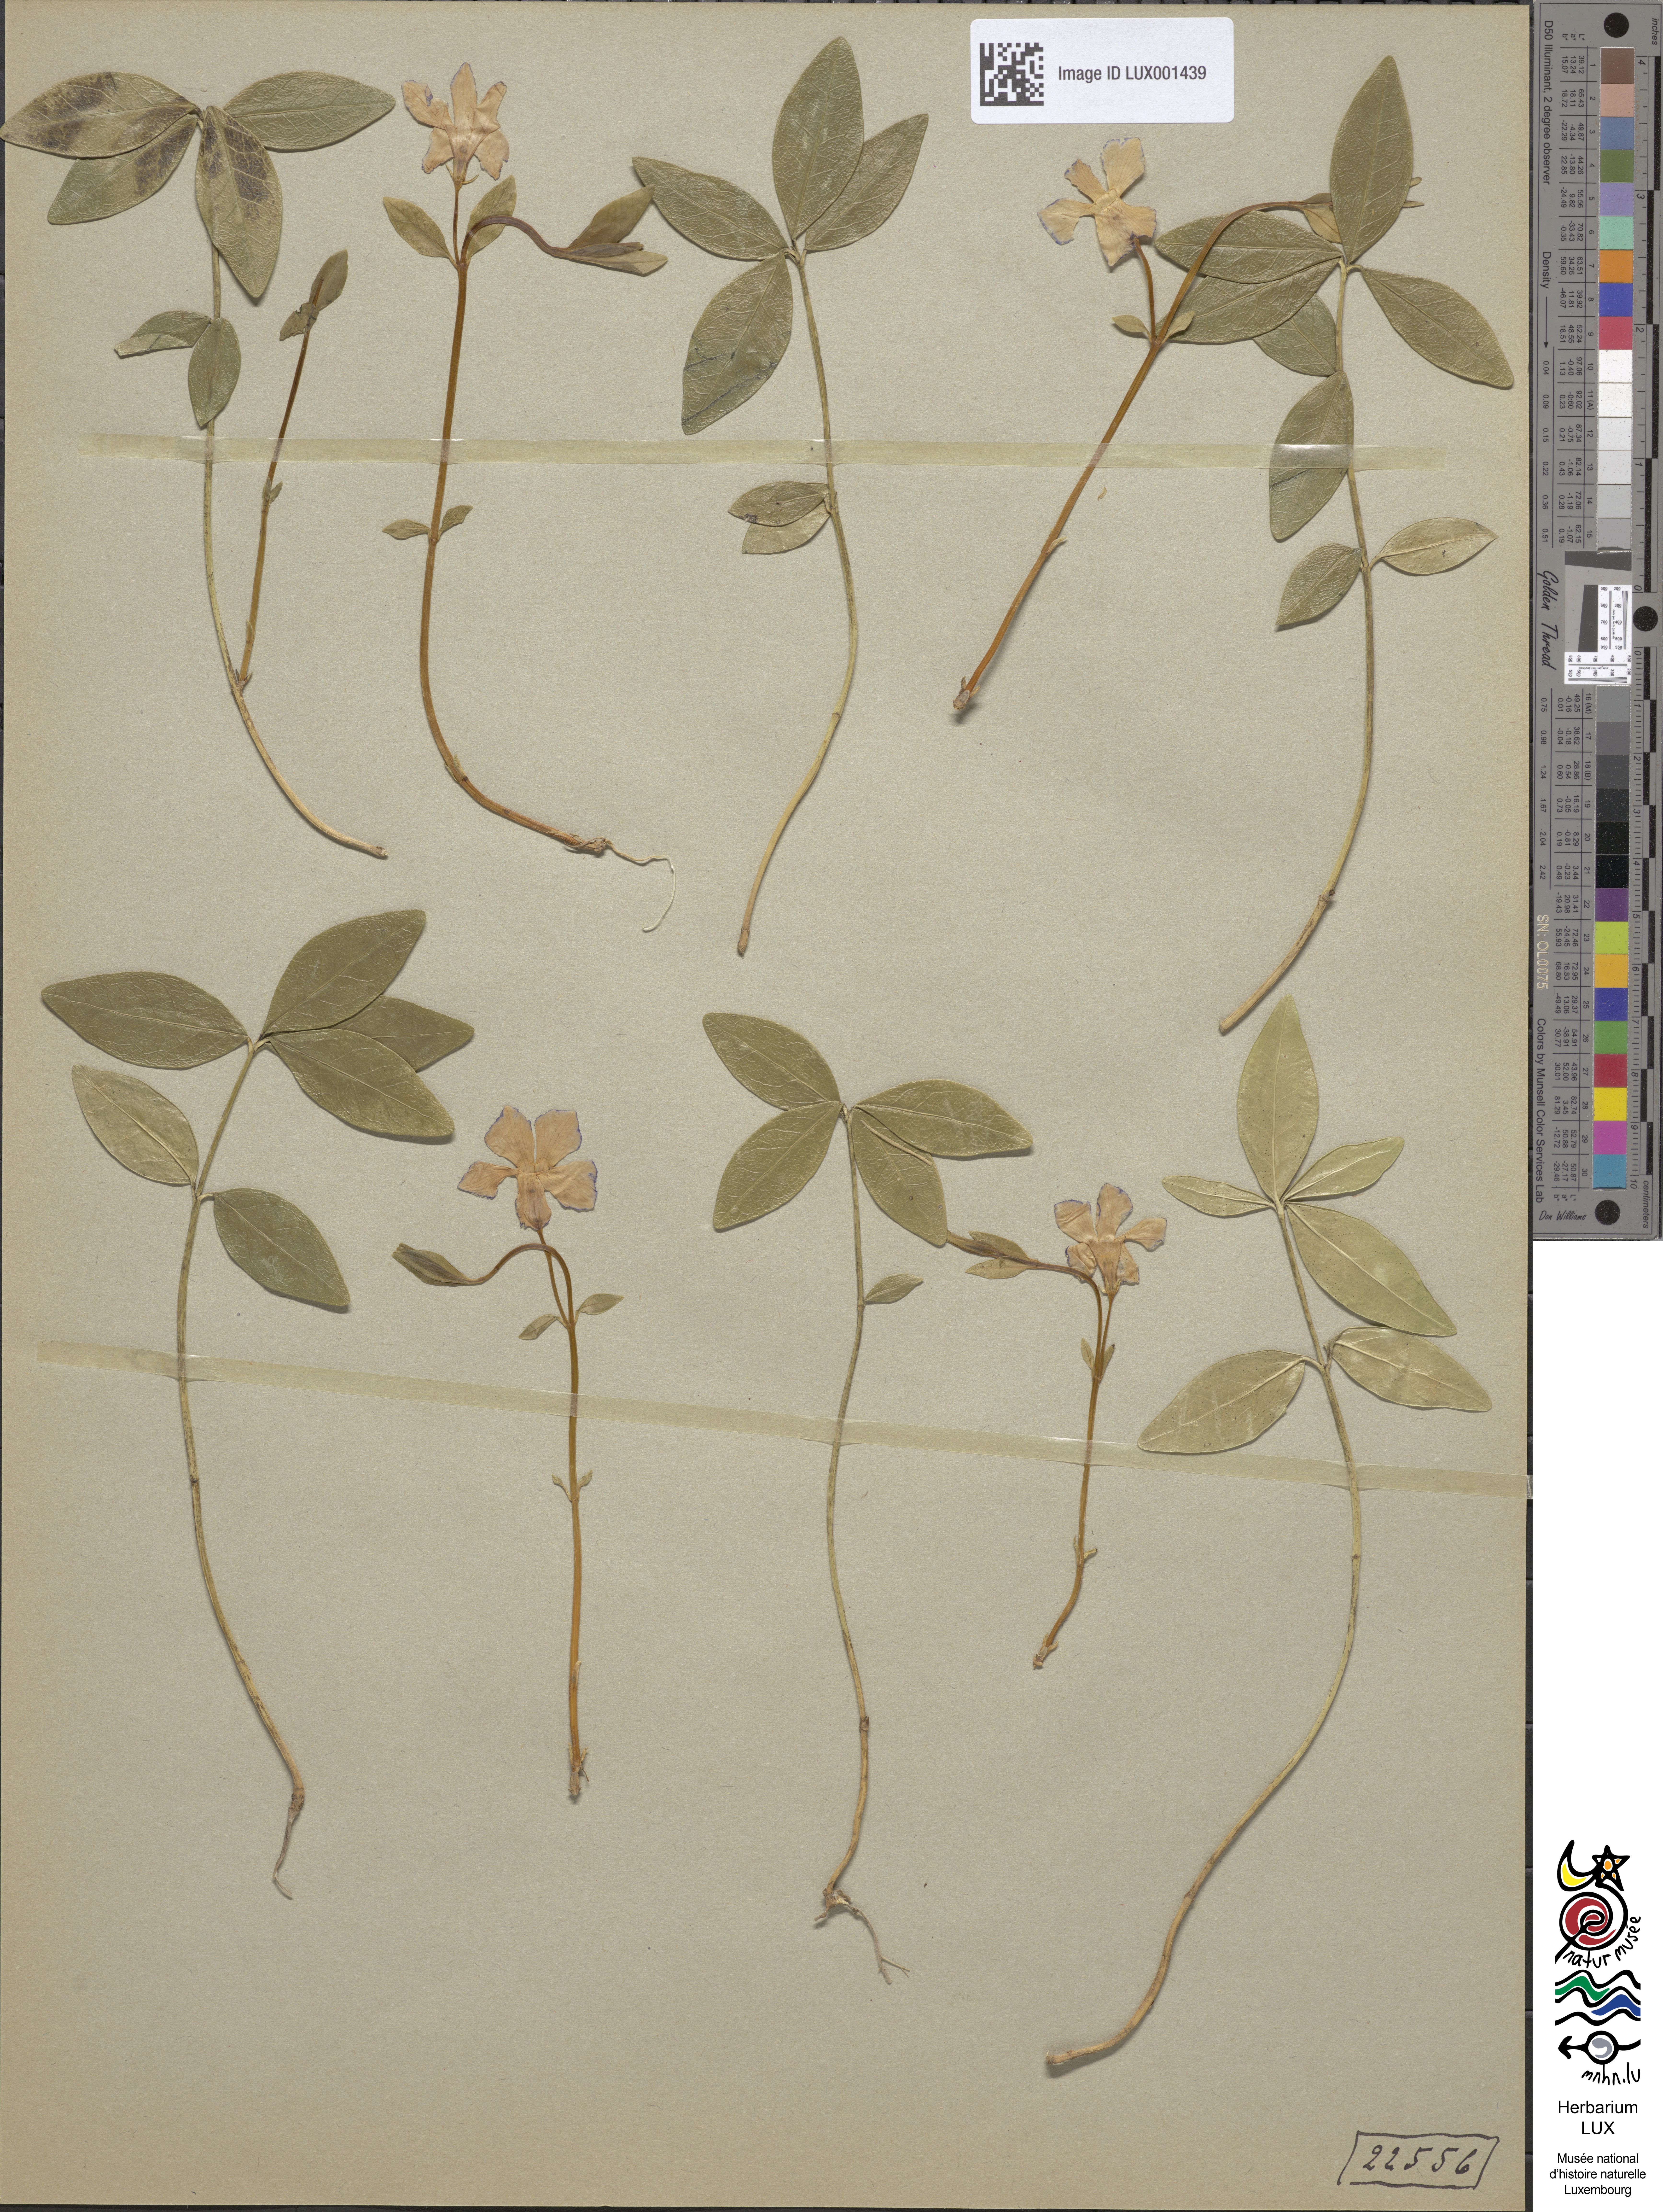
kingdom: Plantae
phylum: Tracheophyta
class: Magnoliopsida
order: Gentianales
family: Apocynaceae
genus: Vinca
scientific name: Vinca minor
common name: Lesser periwinkle
